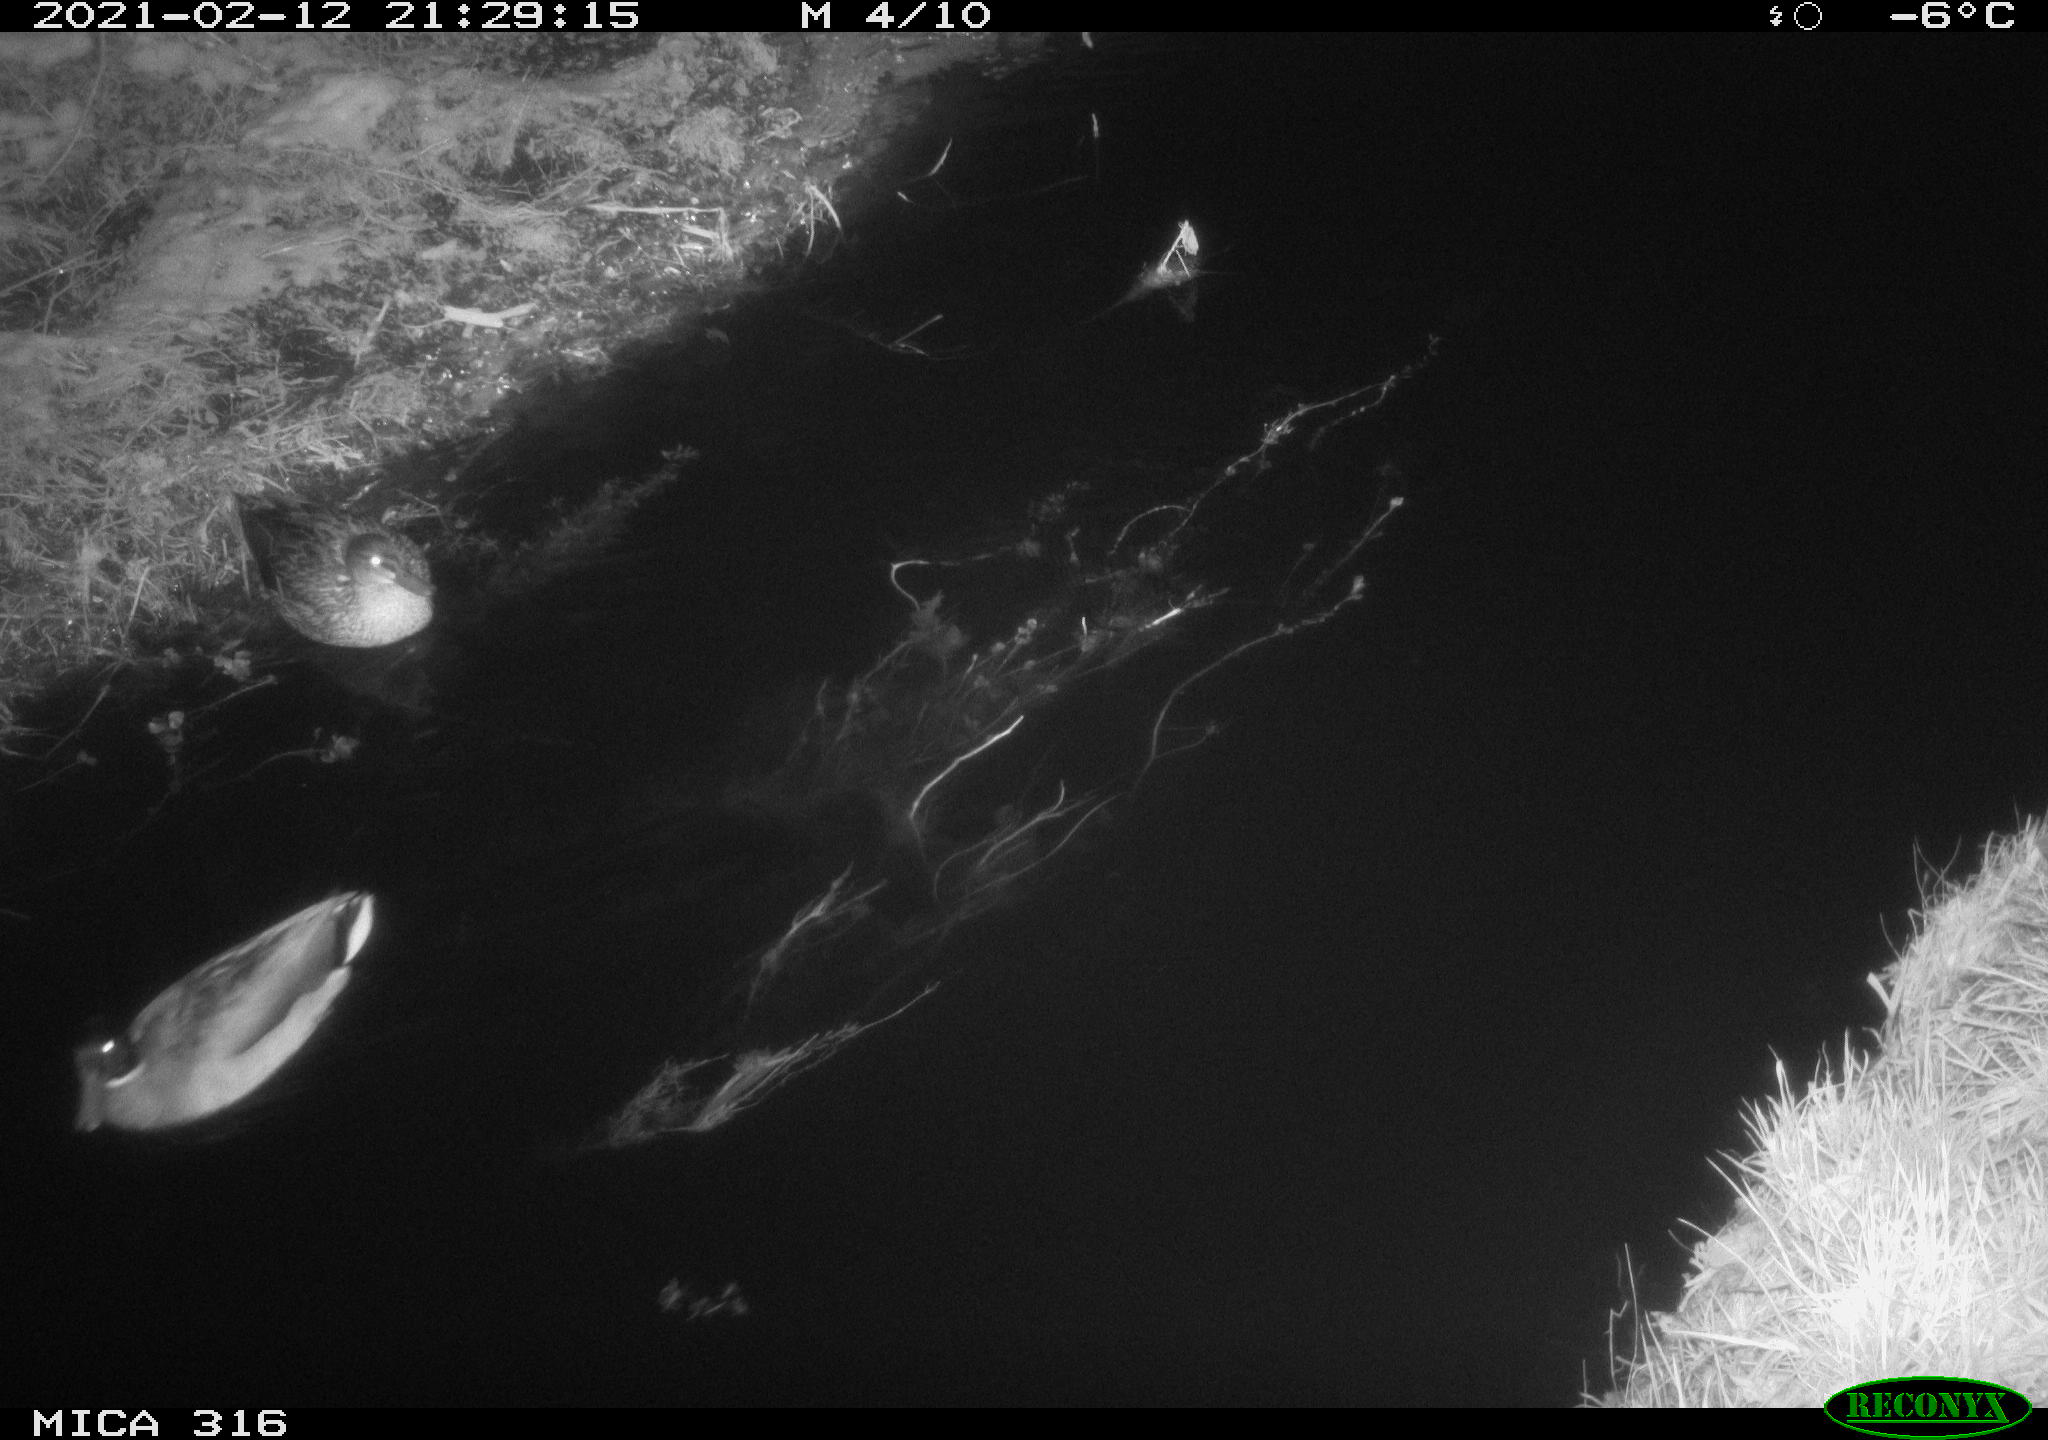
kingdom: Animalia
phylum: Chordata
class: Aves
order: Anseriformes
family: Anatidae
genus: Anas
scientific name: Anas platyrhynchos
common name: Mallard
